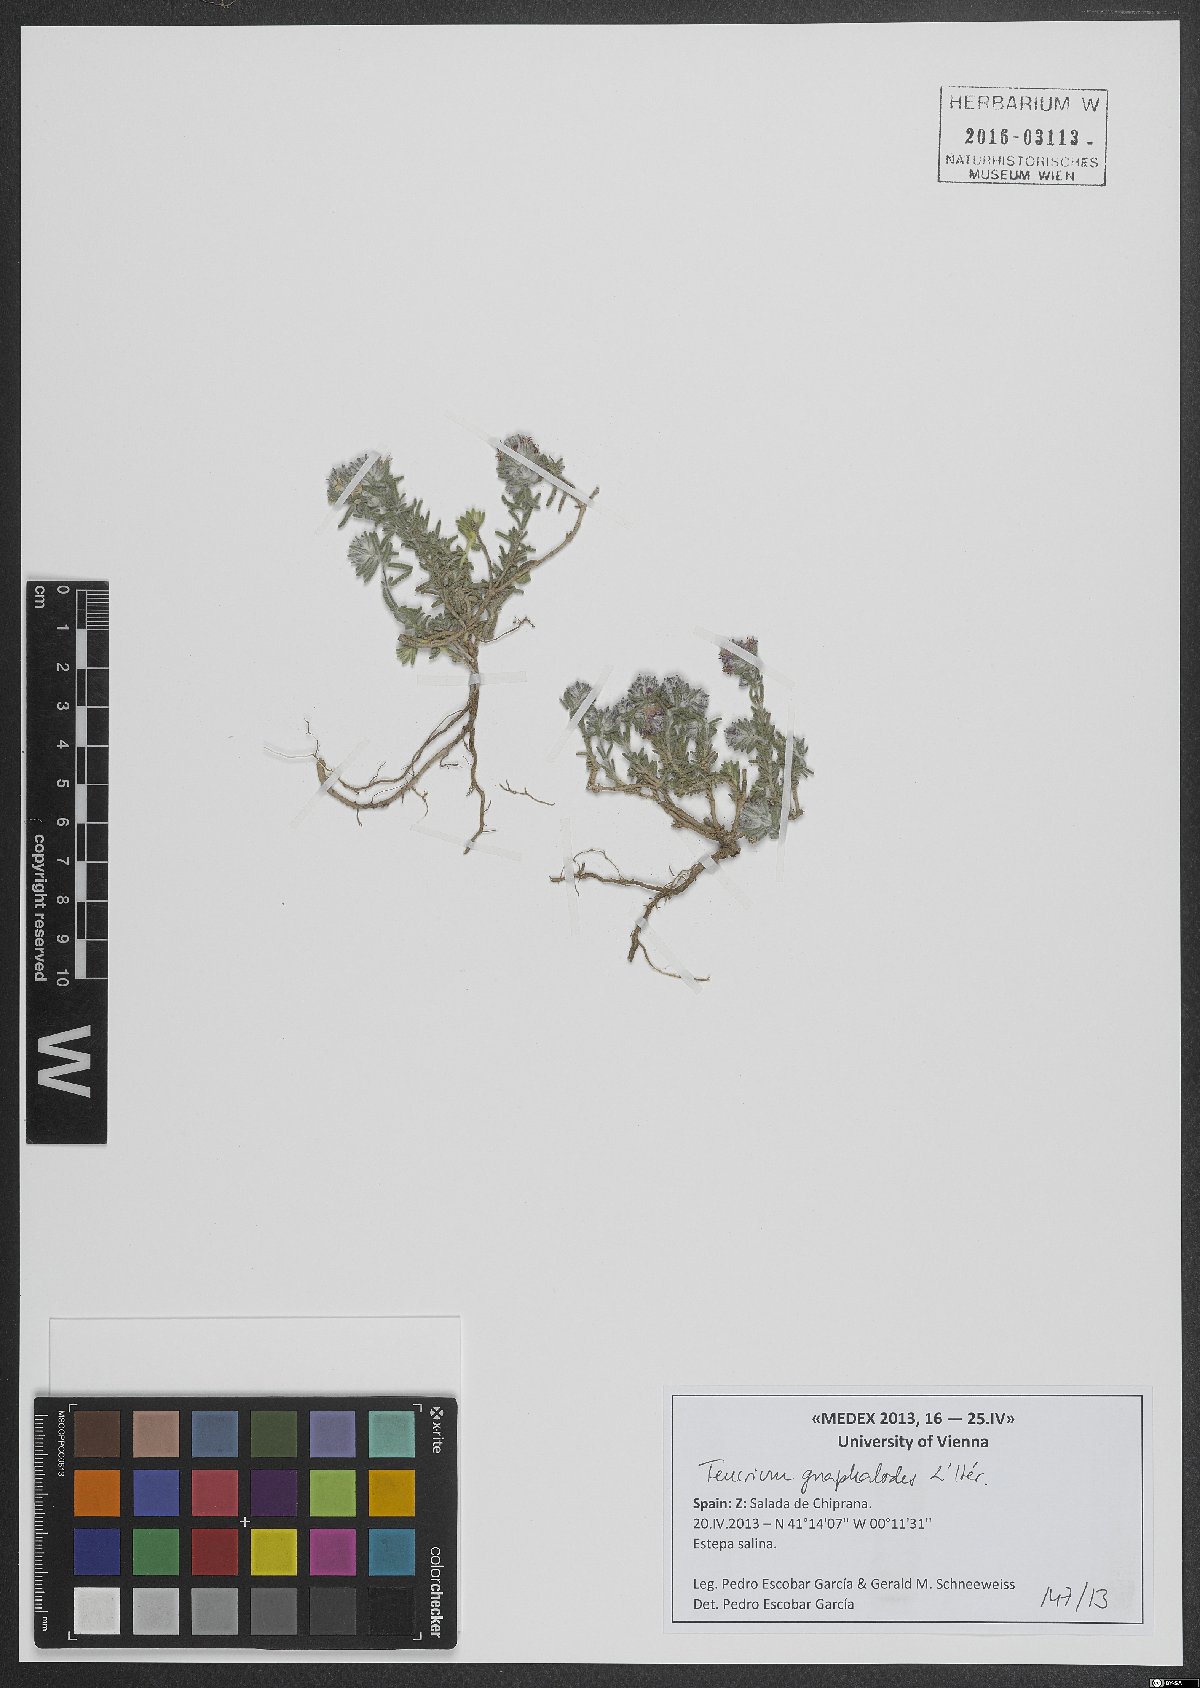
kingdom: Plantae
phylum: Tracheophyta
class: Magnoliopsida
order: Lamiales
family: Lamiaceae
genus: Teucrium
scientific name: Teucrium gnaphalodes
